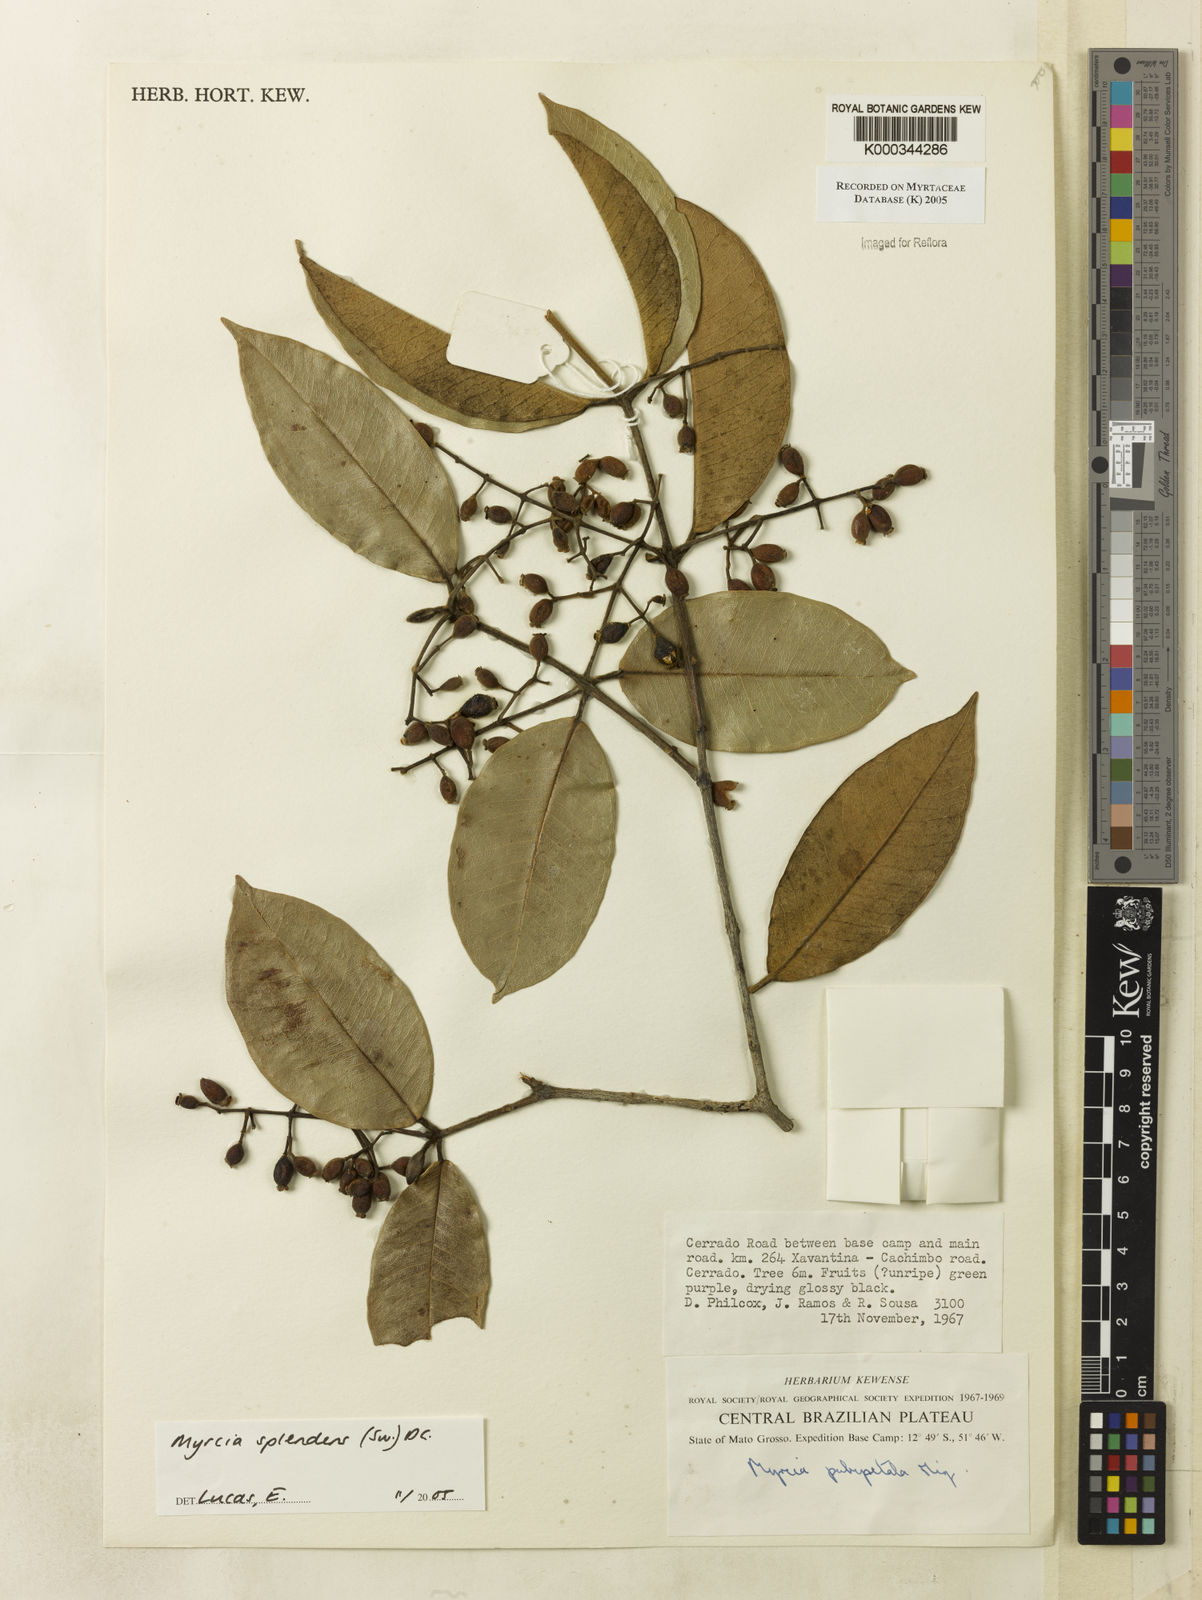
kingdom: Plantae
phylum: Tracheophyta
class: Magnoliopsida
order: Myrtales
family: Myrtaceae
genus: Myrcia
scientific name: Myrcia splendens
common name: Surinam cherry
